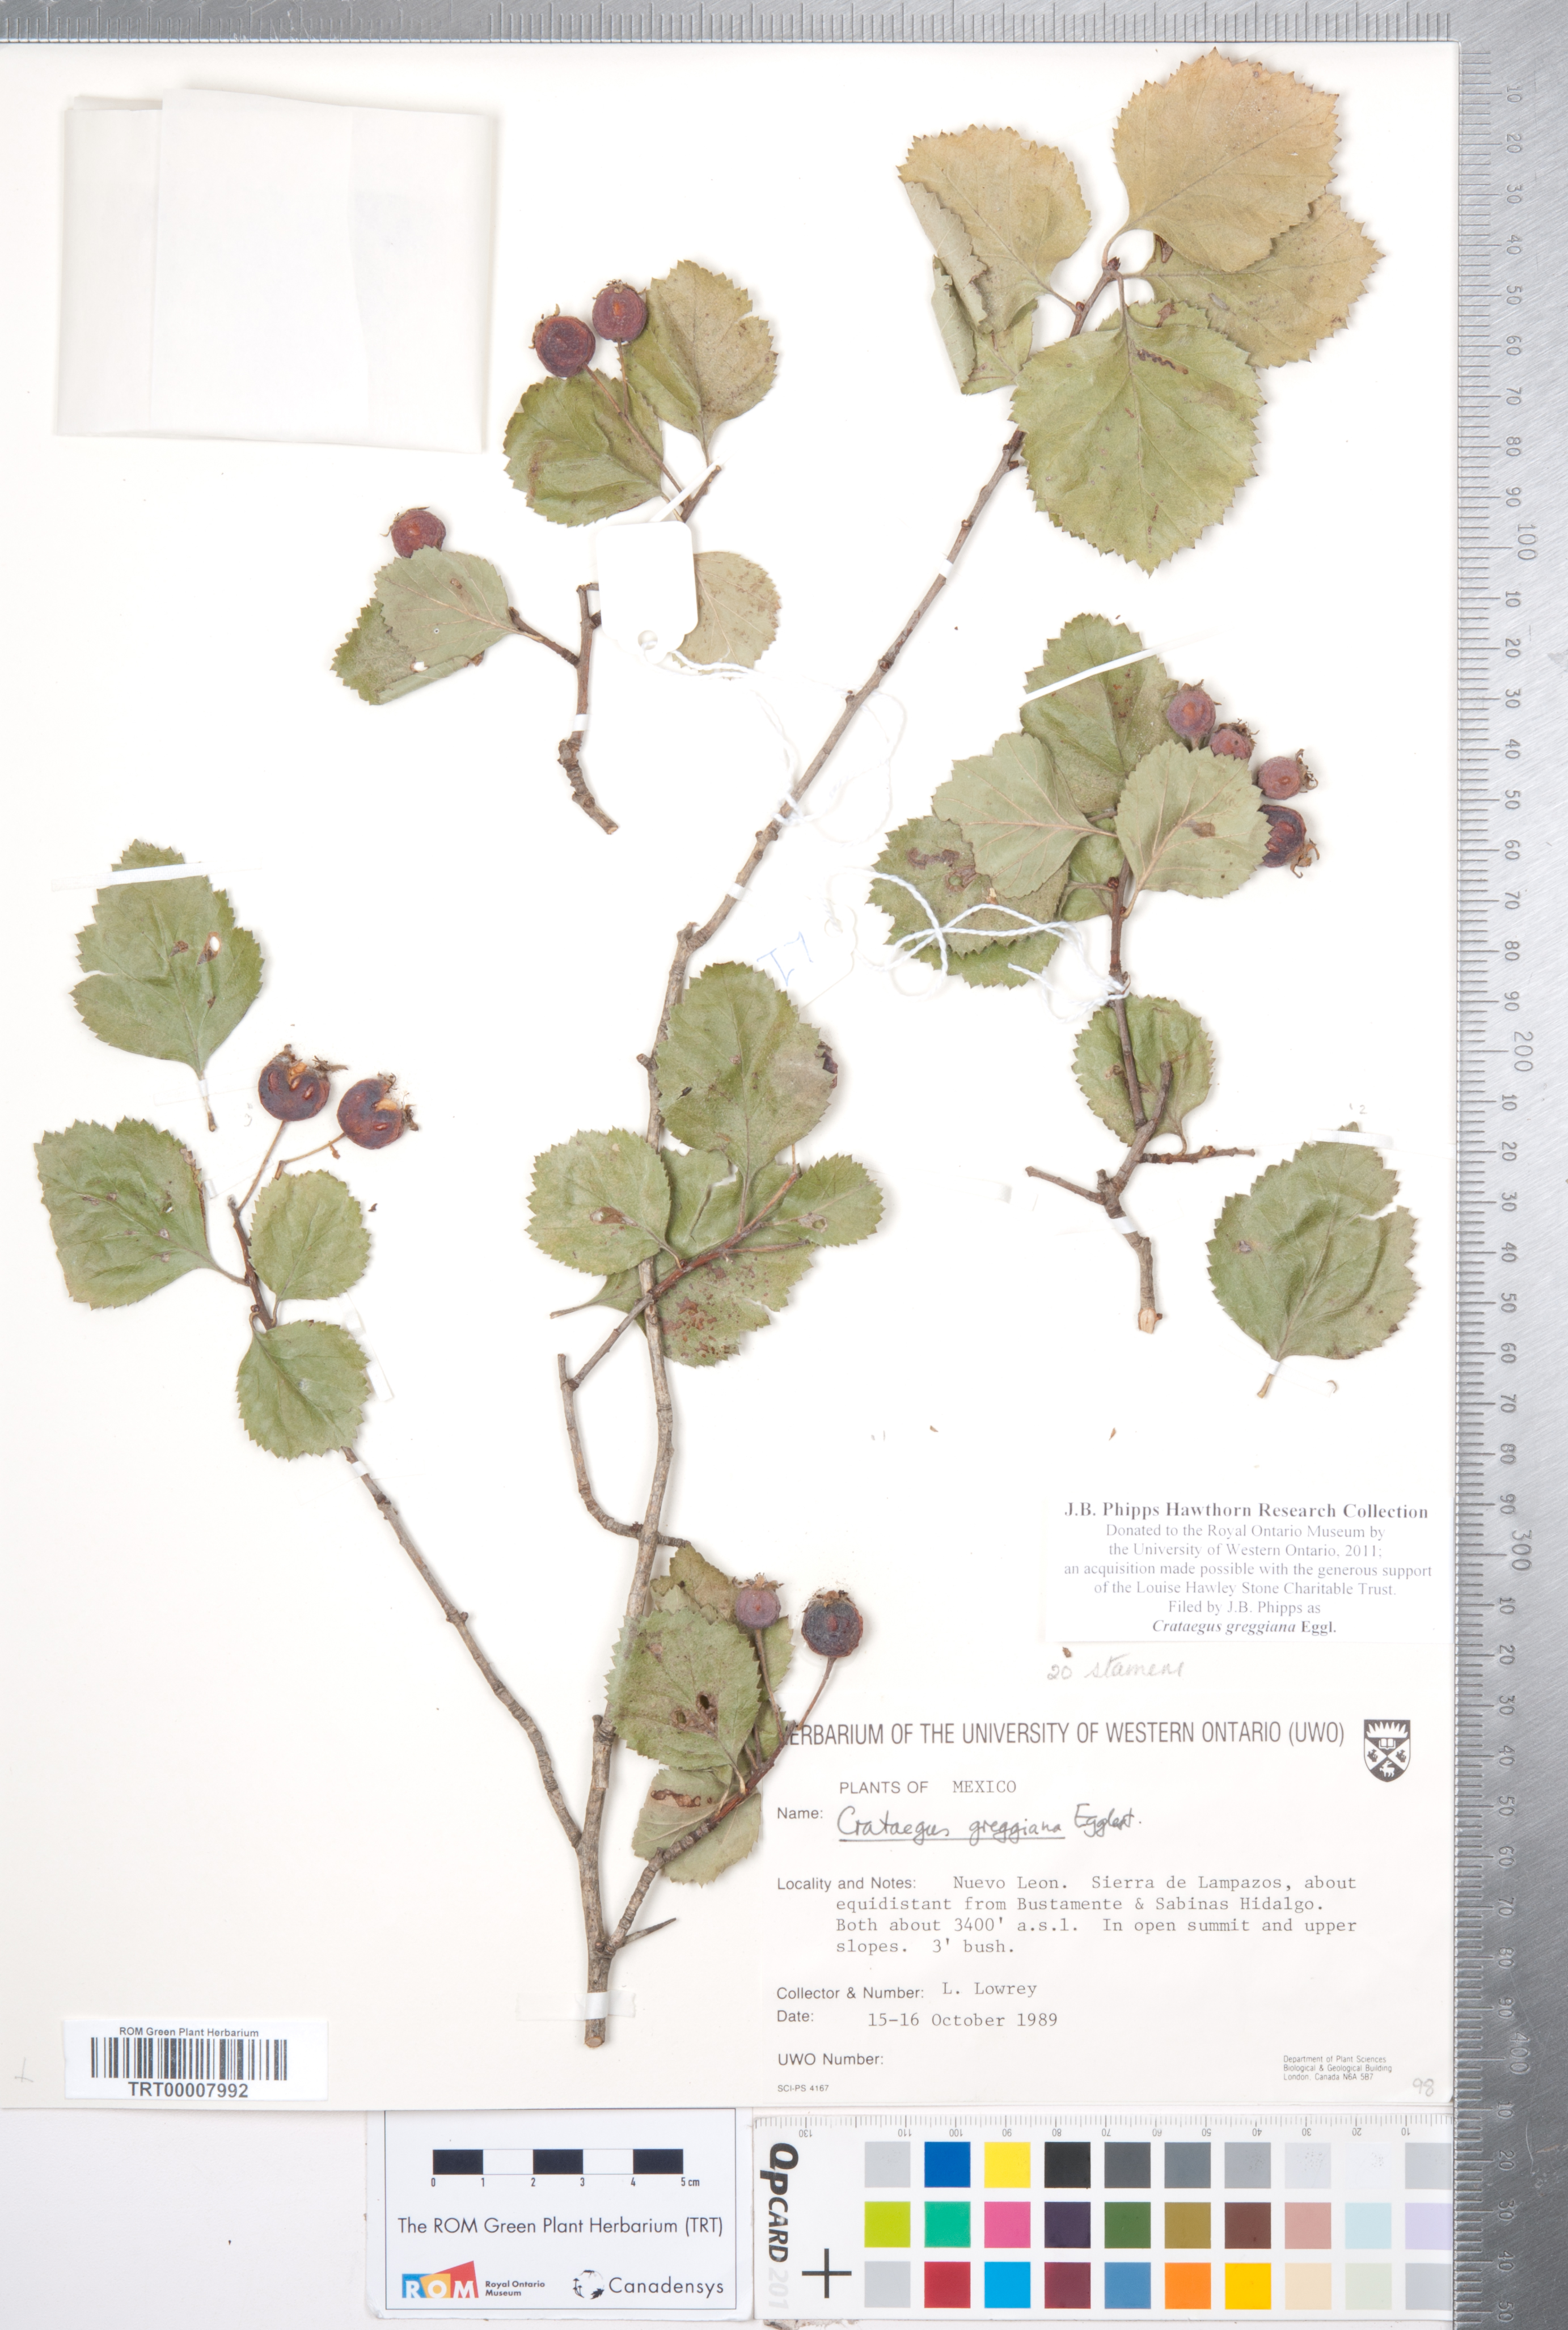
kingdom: Plantae
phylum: Tracheophyta
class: Magnoliopsida
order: Rosales
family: Rosaceae
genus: Crataegus
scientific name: Crataegus greggiana
